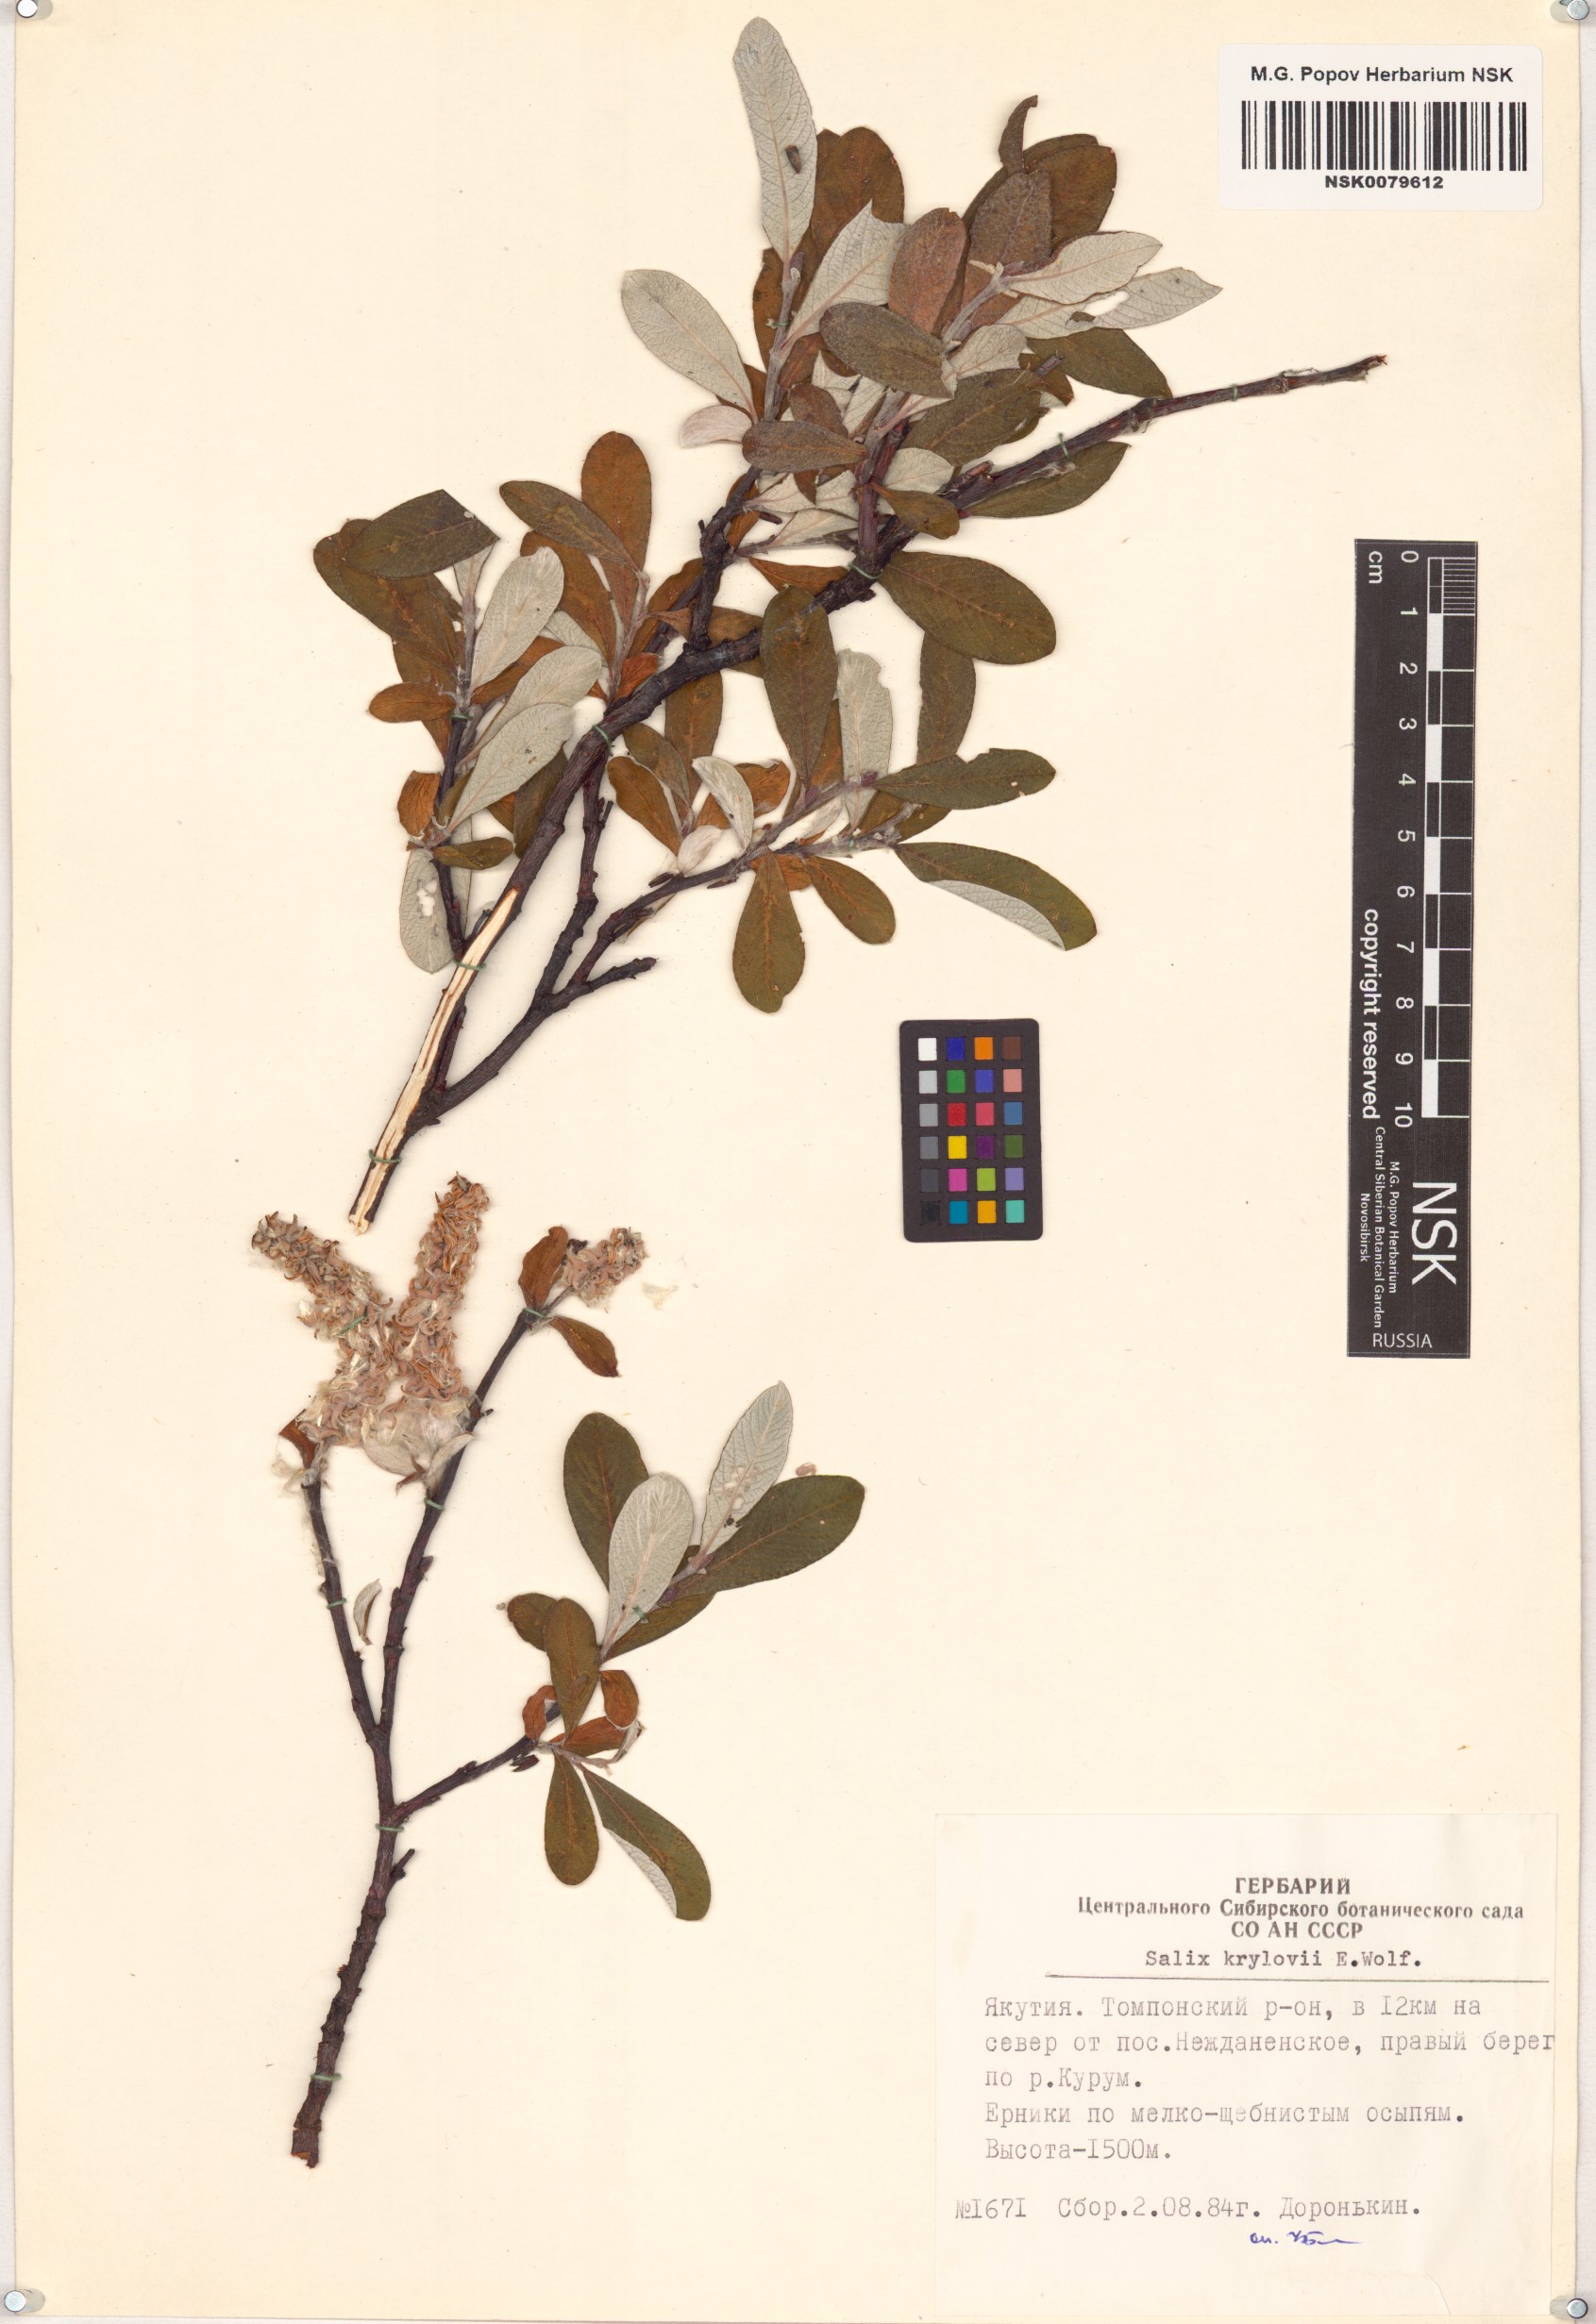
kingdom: Plantae
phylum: Tracheophyta
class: Magnoliopsida
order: Malpighiales
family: Salicaceae
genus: Salix
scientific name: Salix krylovii
